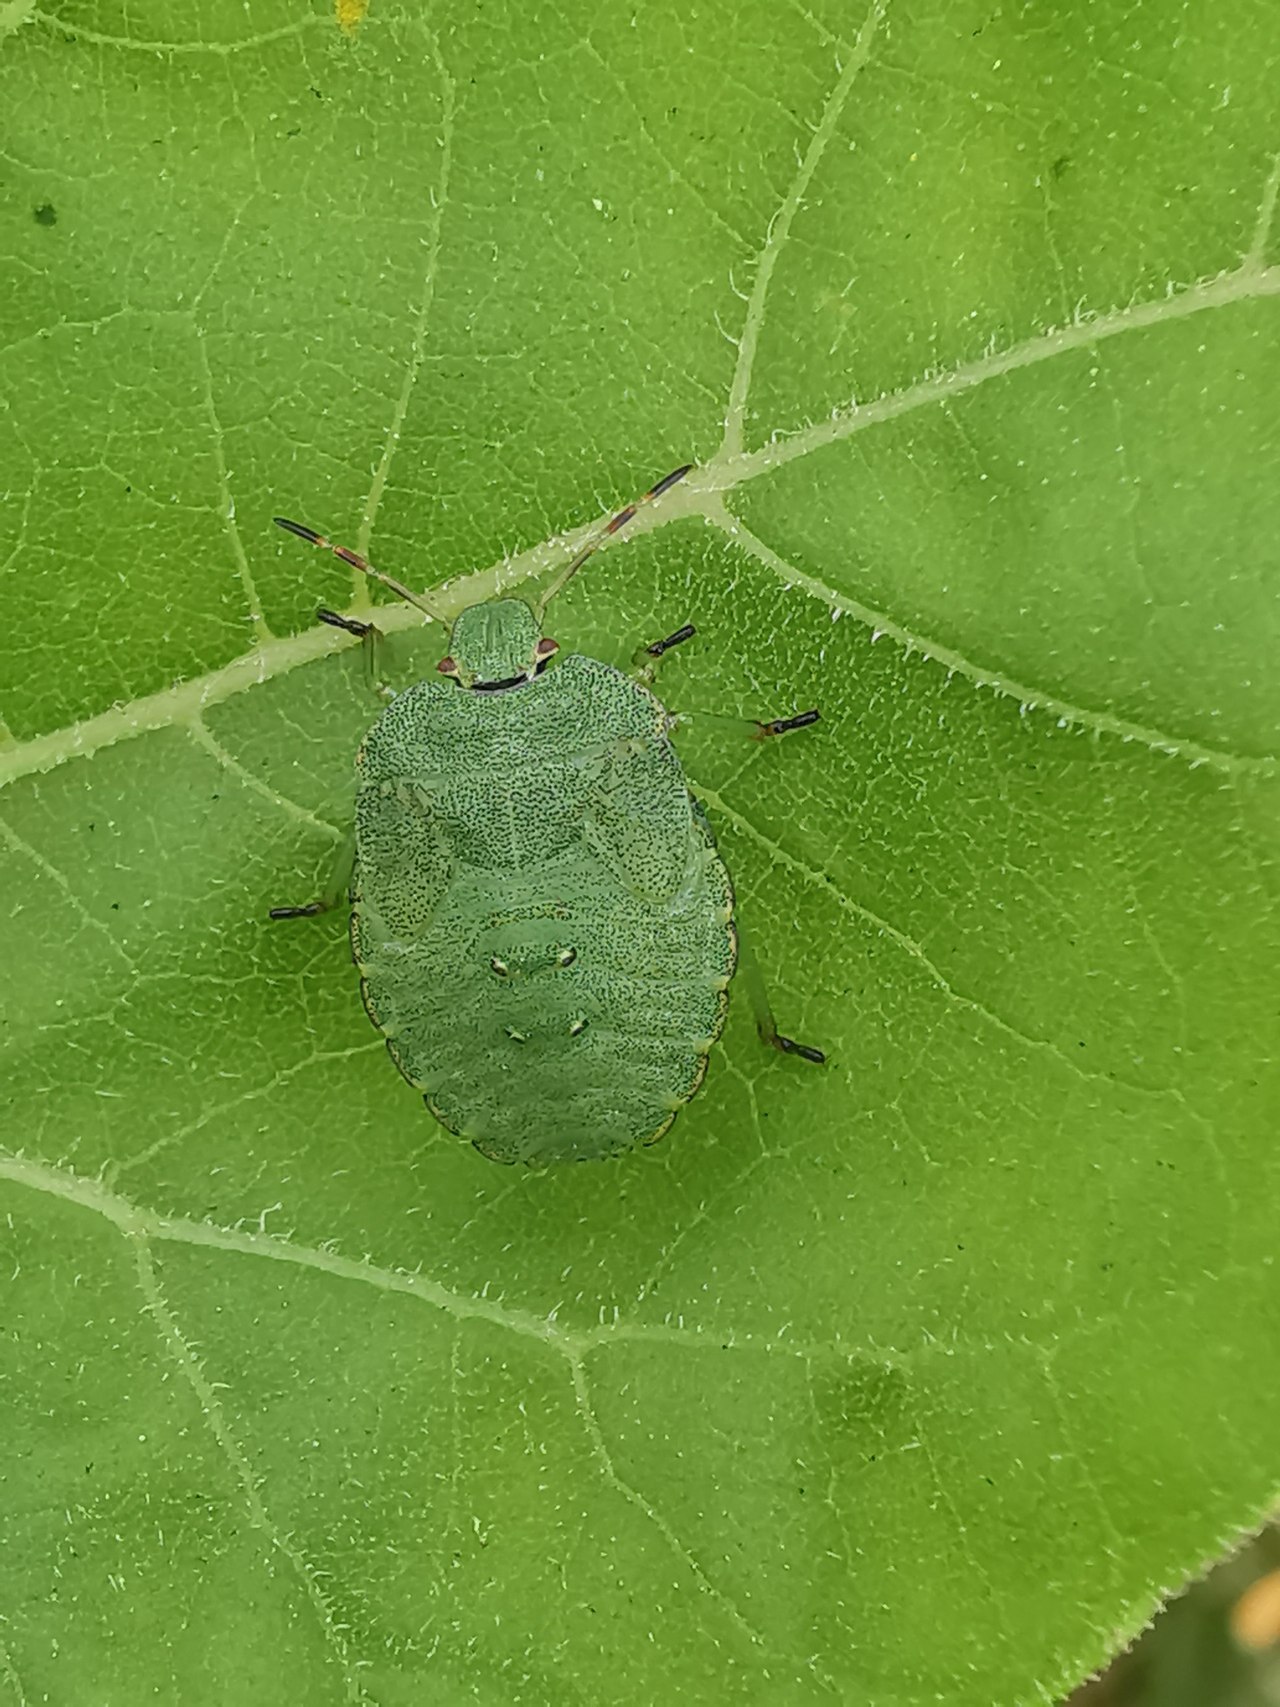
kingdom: Animalia
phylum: Arthropoda
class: Insecta
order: Hemiptera
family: Pentatomidae
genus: Palomena
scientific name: Palomena prasina
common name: Grøn bredtæge
